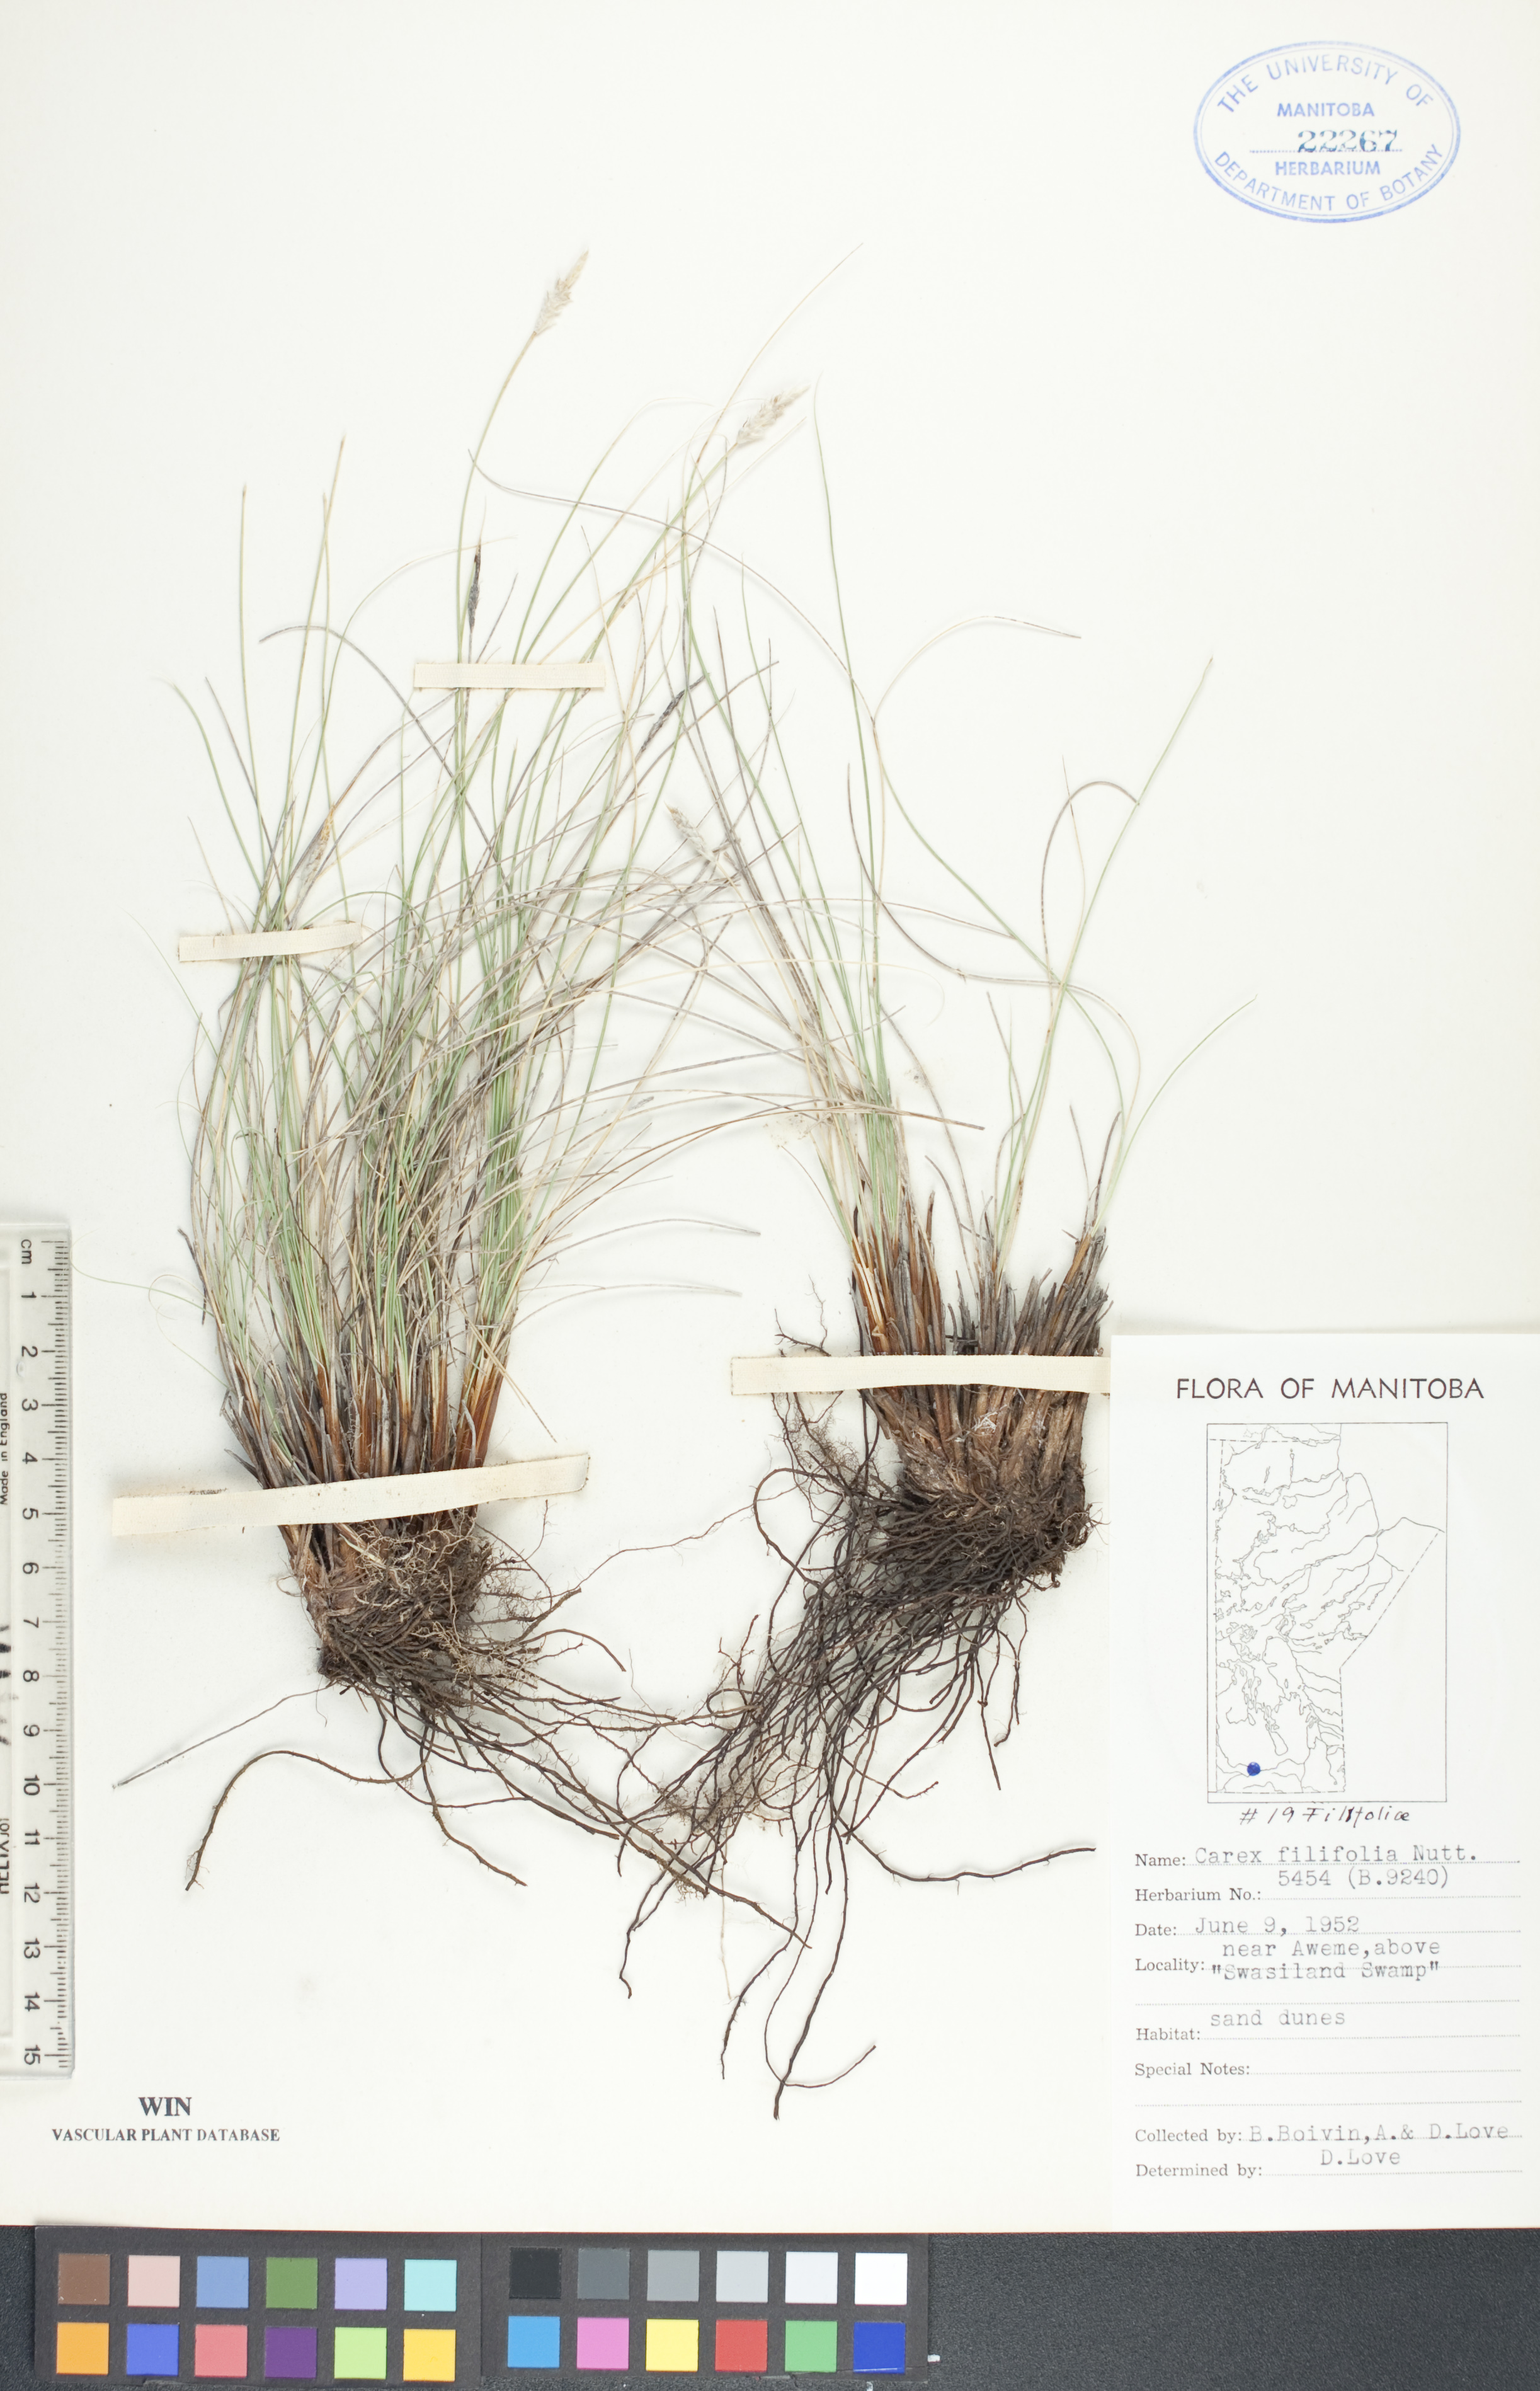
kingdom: Plantae
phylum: Tracheophyta
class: Liliopsida
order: Poales
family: Cyperaceae
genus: Carex
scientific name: Carex filifolia
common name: Threadleaf sedge
